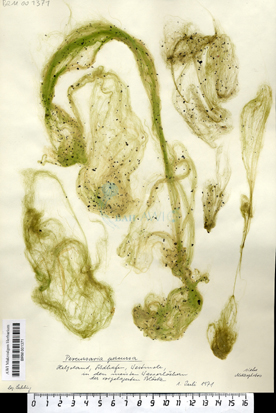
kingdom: Plantae
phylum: Chlorophyta
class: Ulvophyceae
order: Ulvales
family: Ulvaceae
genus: Percursaria
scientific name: Percursaria percursa
